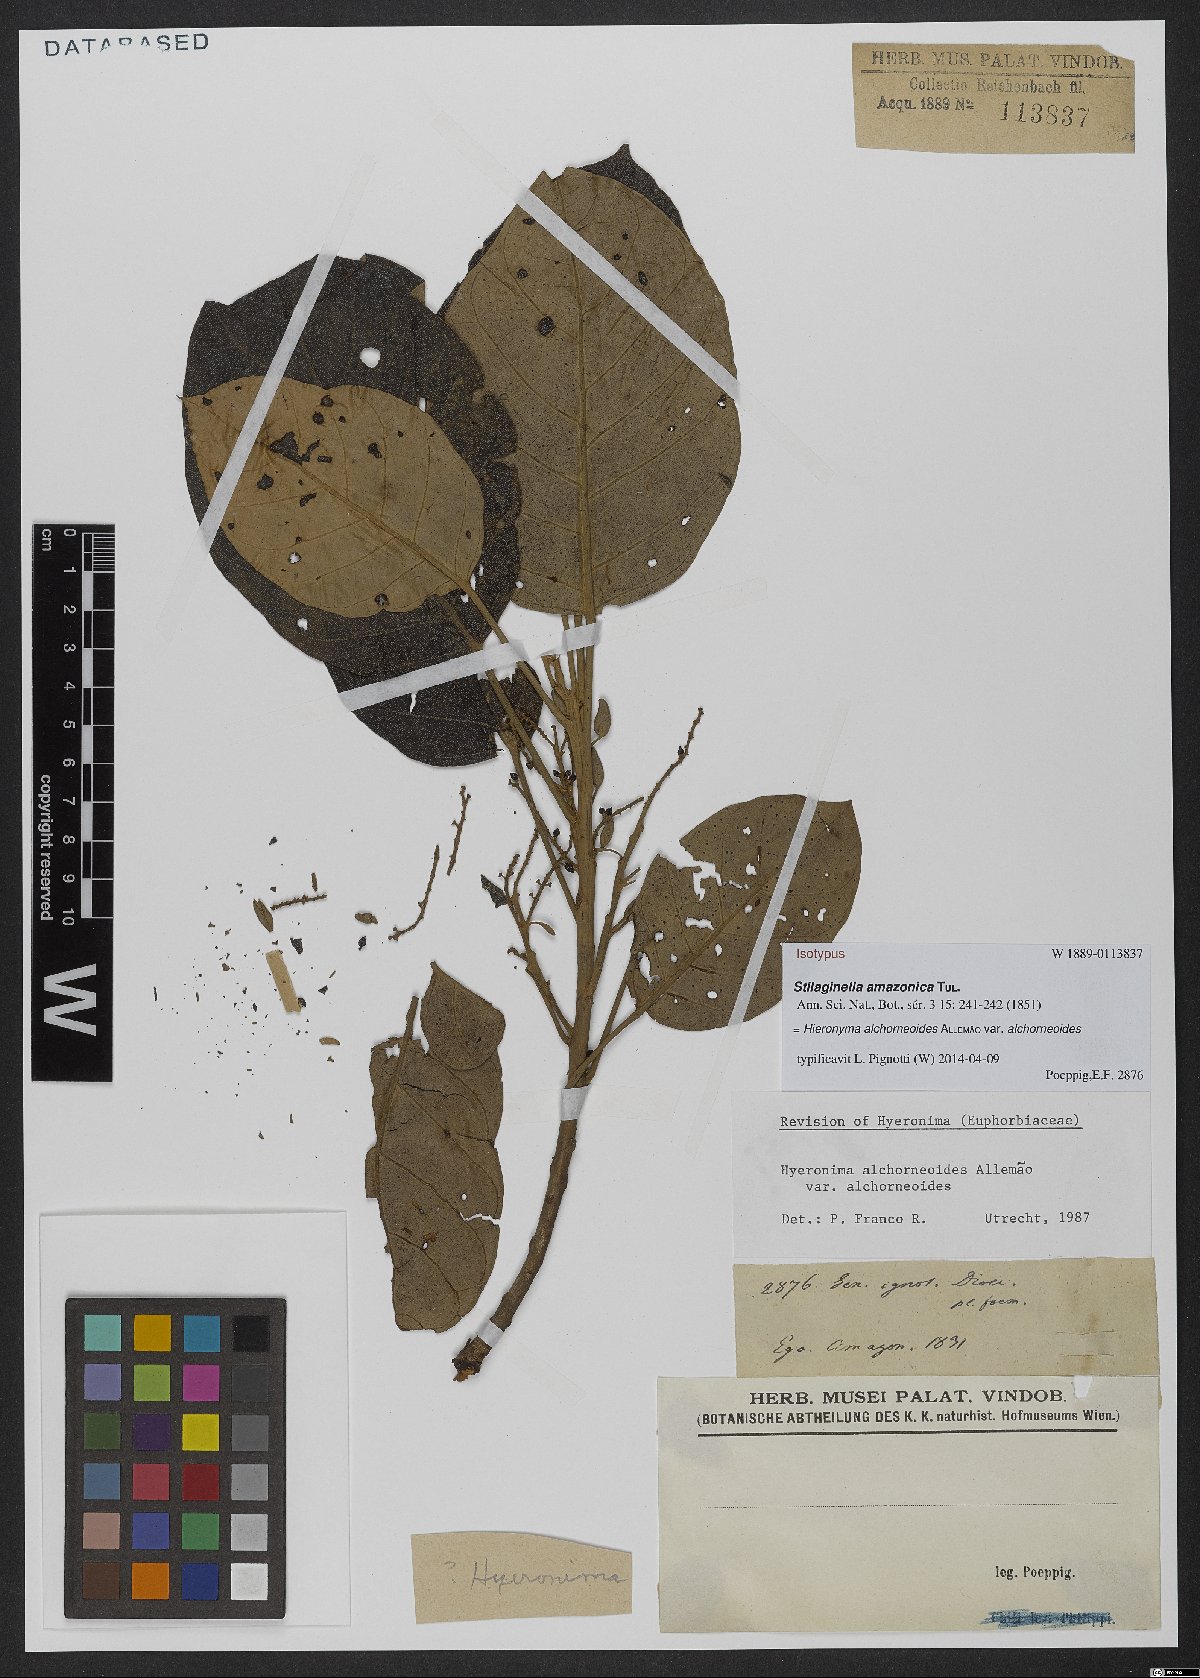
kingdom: Plantae
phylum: Tracheophyta
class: Magnoliopsida
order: Malpighiales
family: Phyllanthaceae
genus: Hieronyma
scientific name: Hieronyma alchorneoides
